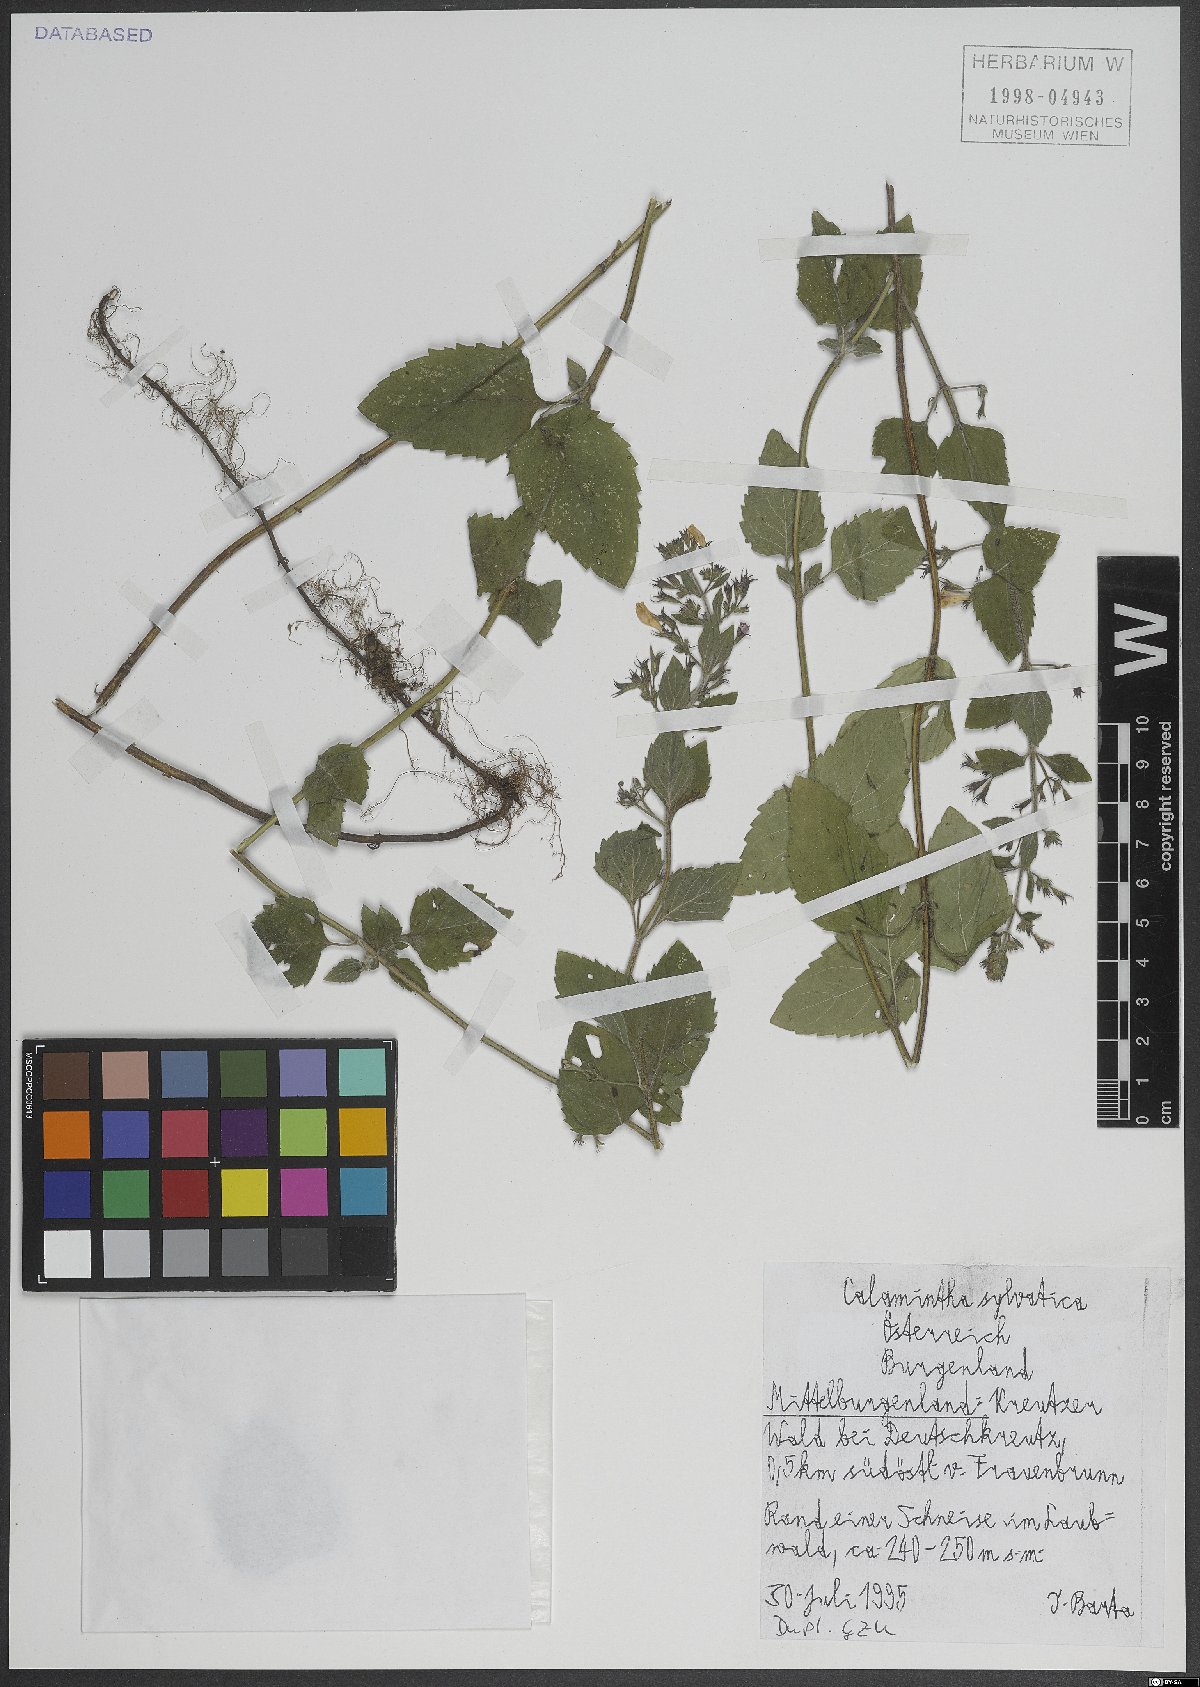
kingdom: Plantae
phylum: Tracheophyta
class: Magnoliopsida
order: Lamiales
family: Lamiaceae
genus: Clinopodium
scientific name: Clinopodium menthifolium
